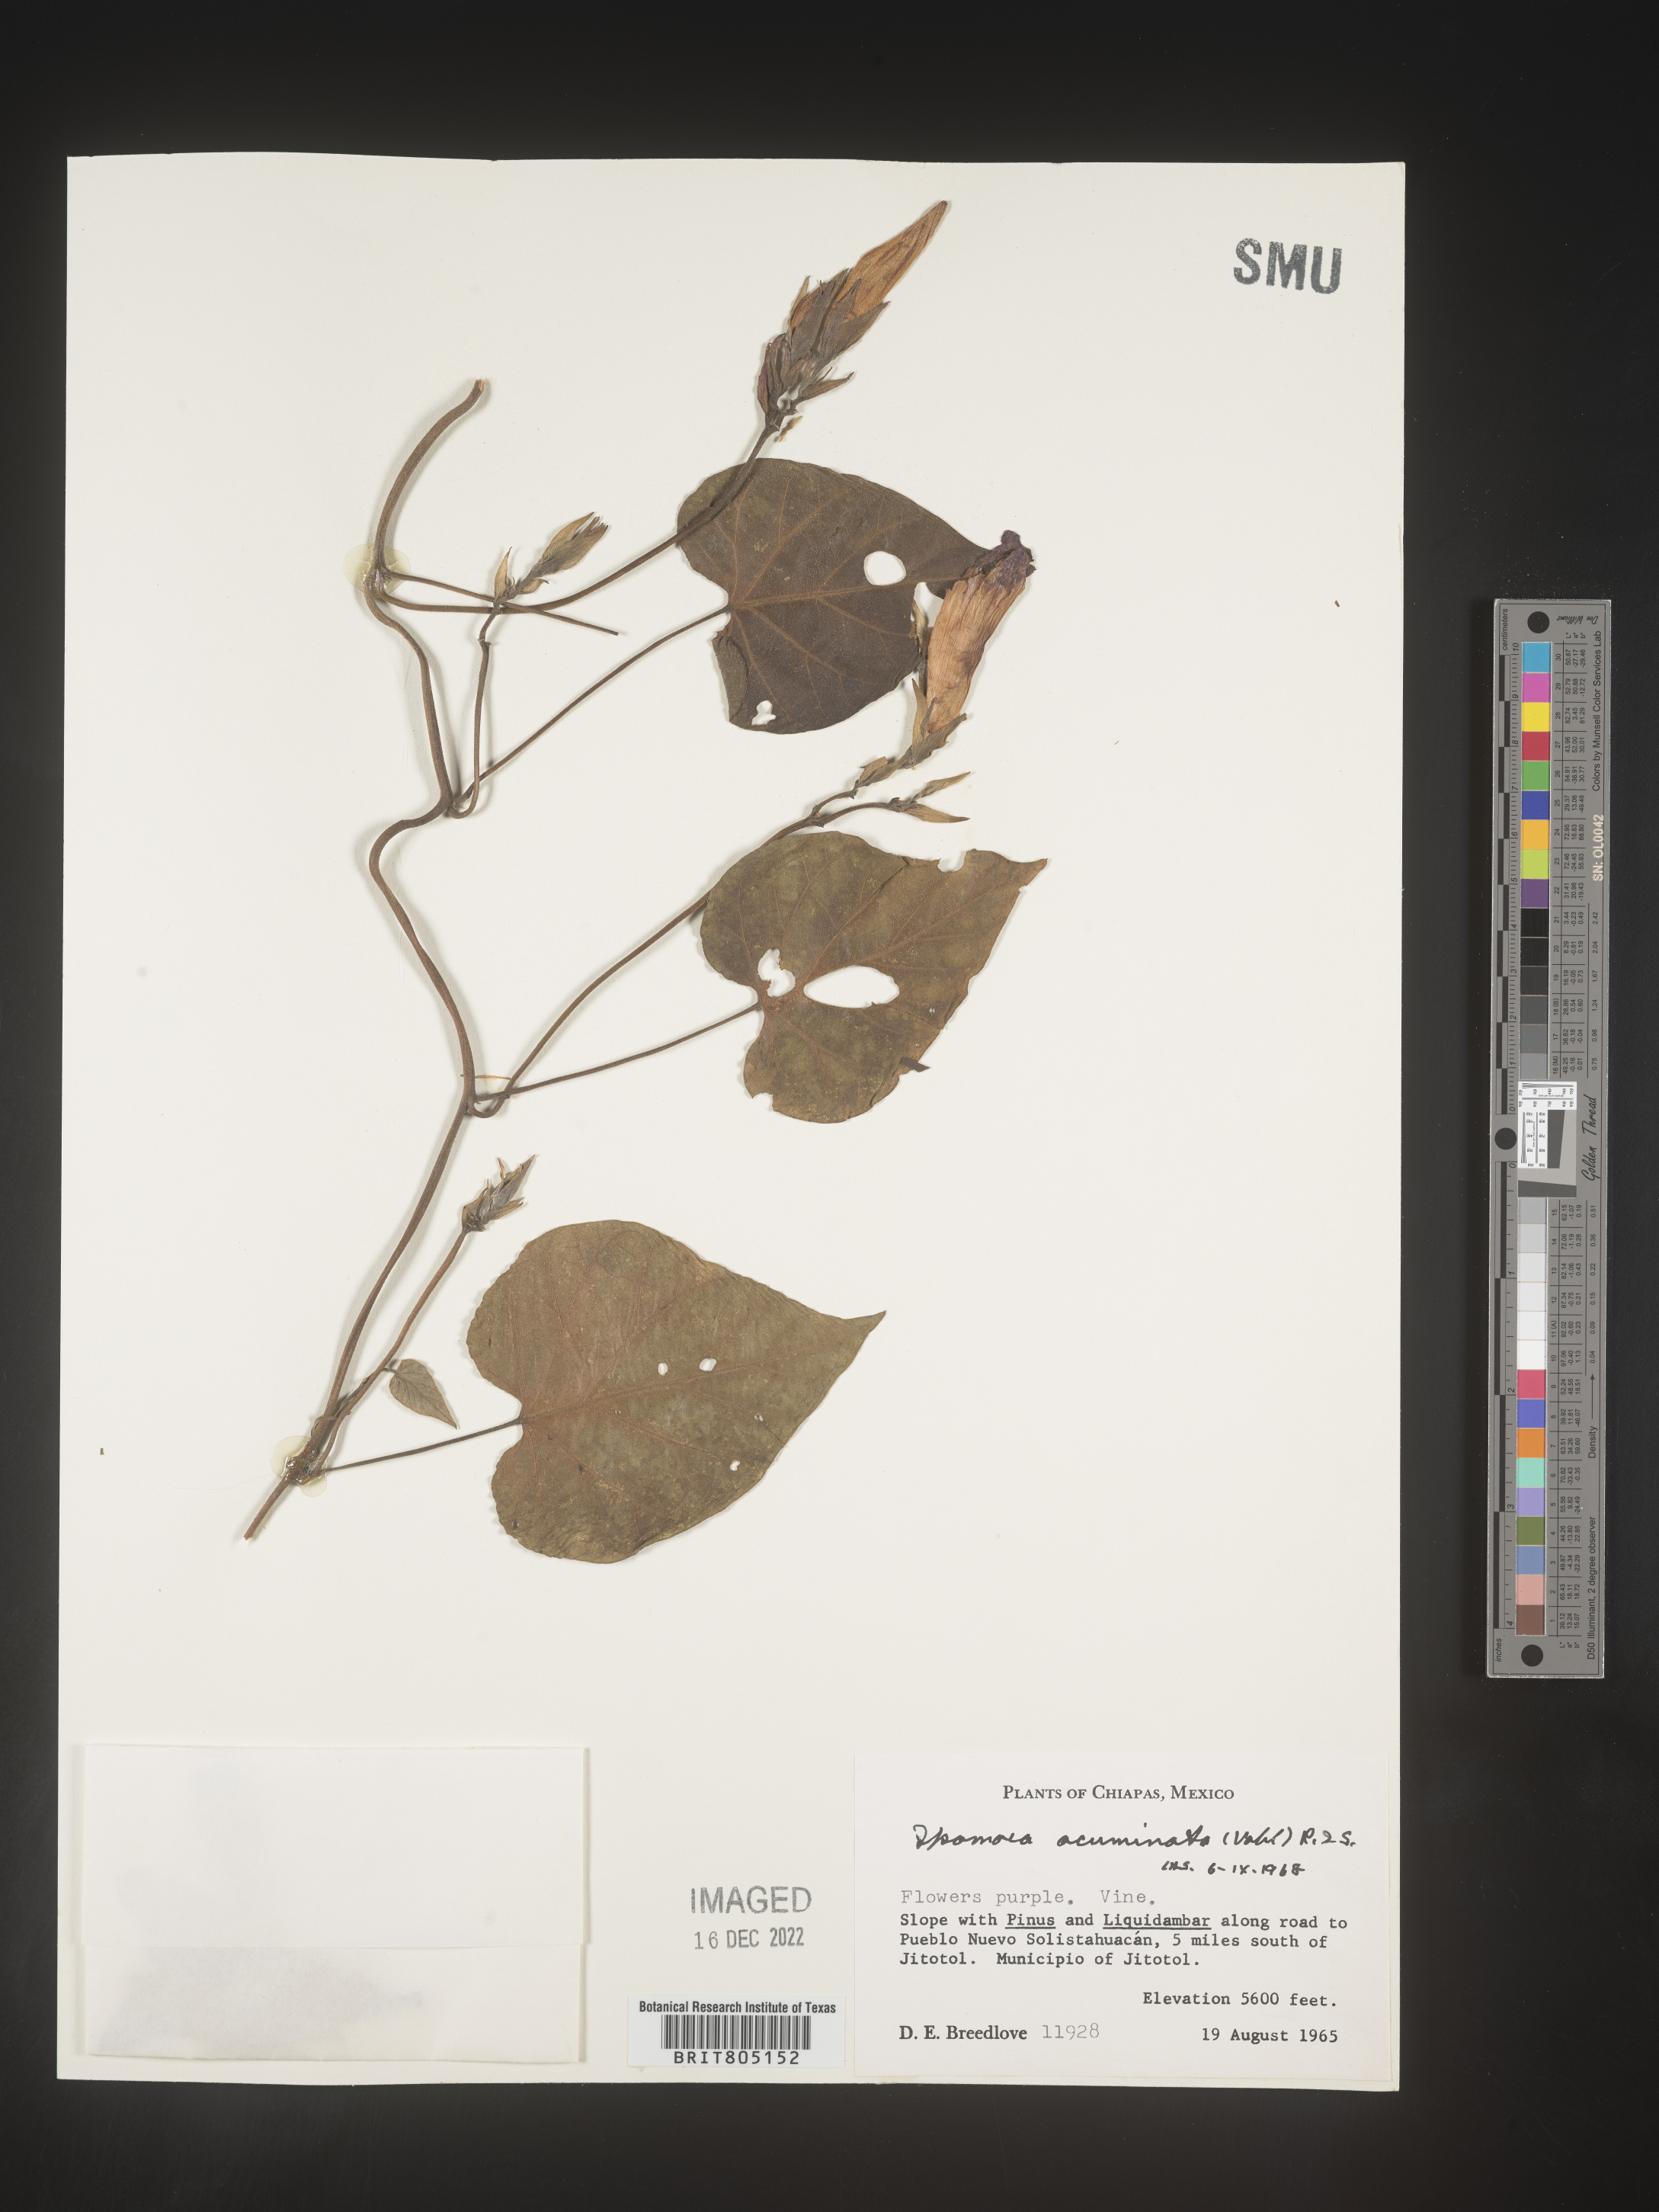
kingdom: Plantae
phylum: Tracheophyta
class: Magnoliopsida
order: Solanales
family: Convolvulaceae
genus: Ipomoea
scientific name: Ipomoea
